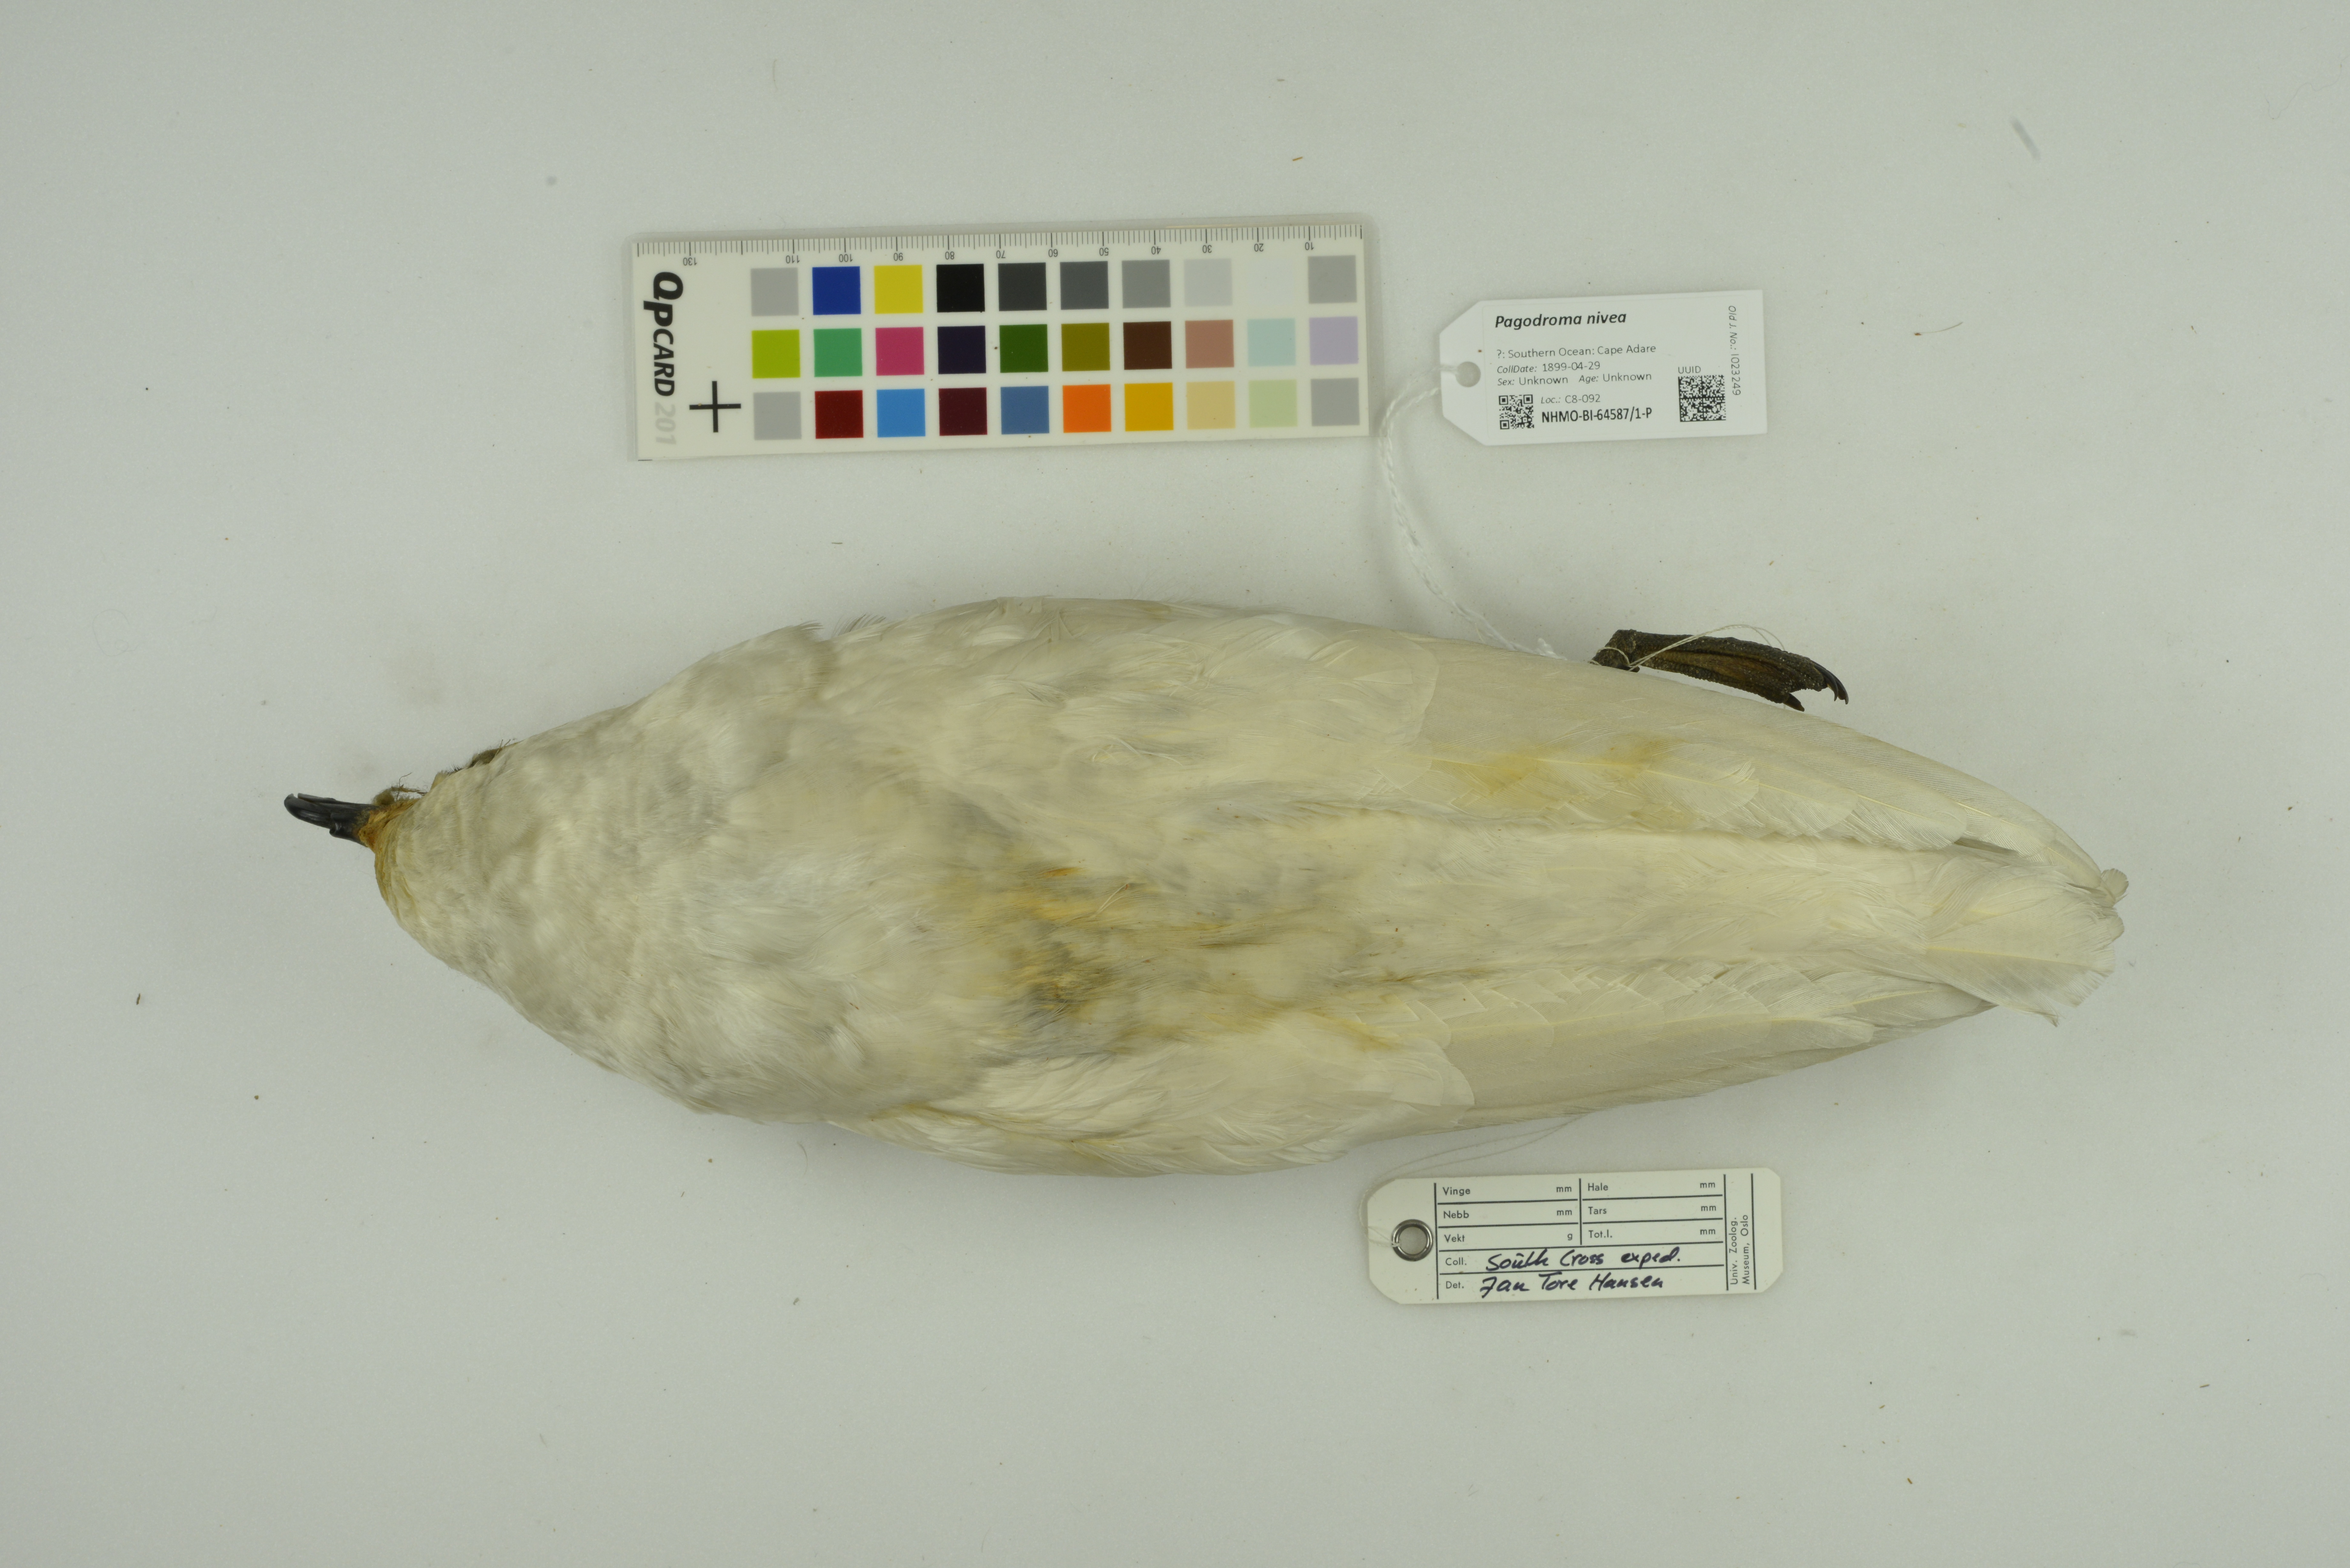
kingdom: Animalia
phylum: Chordata
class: Aves
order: Procellariiformes
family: Procellariidae
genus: Pagodroma
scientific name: Pagodroma nivea
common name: Snow petrel
